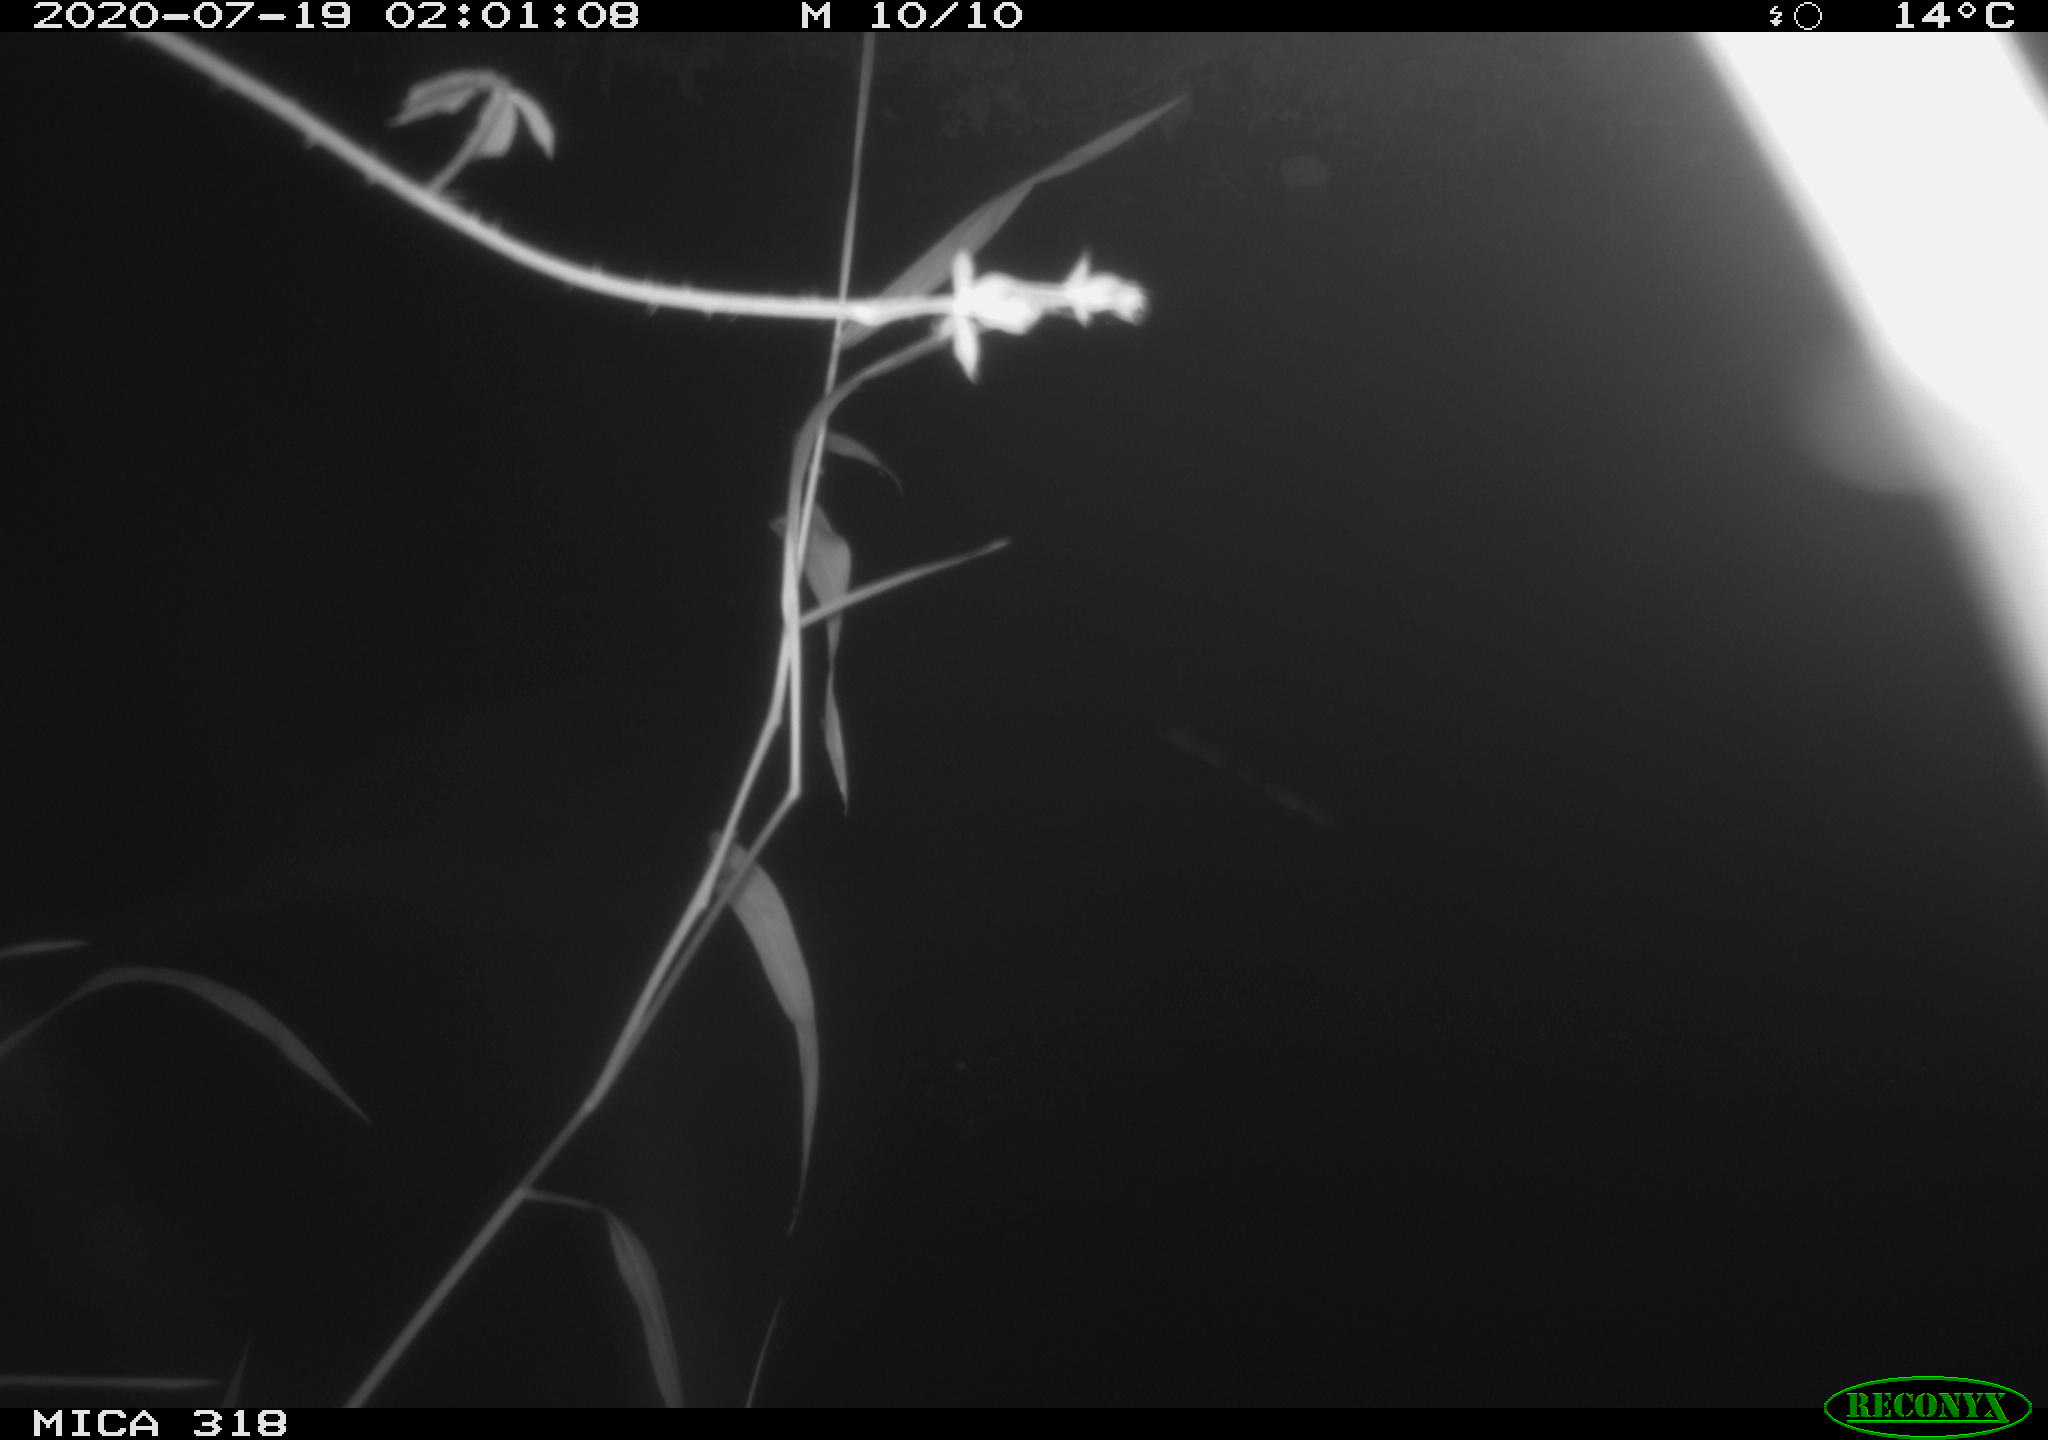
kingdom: Animalia
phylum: Chordata
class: Aves
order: Anseriformes
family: Anatidae
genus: Anas
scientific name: Anas platyrhynchos
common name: Mallard
